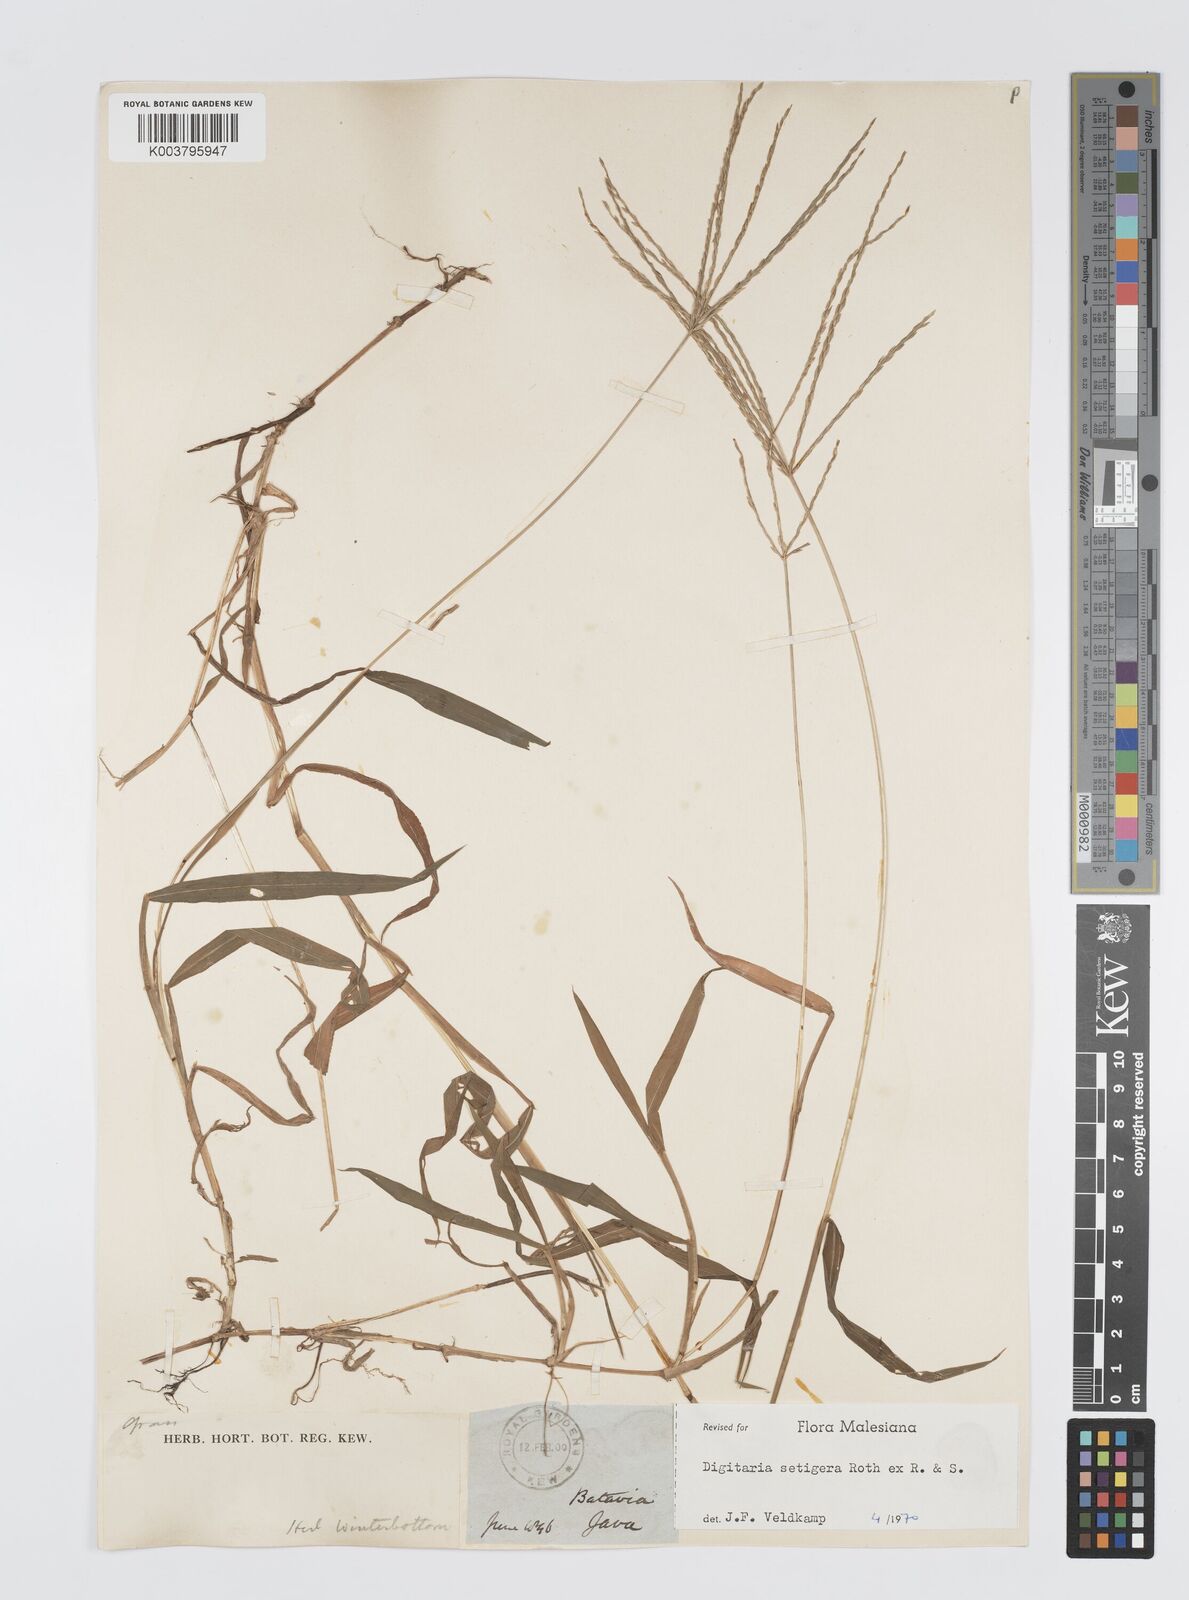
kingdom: Plantae
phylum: Tracheophyta
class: Liliopsida
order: Poales
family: Poaceae
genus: Digitaria
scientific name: Digitaria setigera
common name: East indian crabgrass
